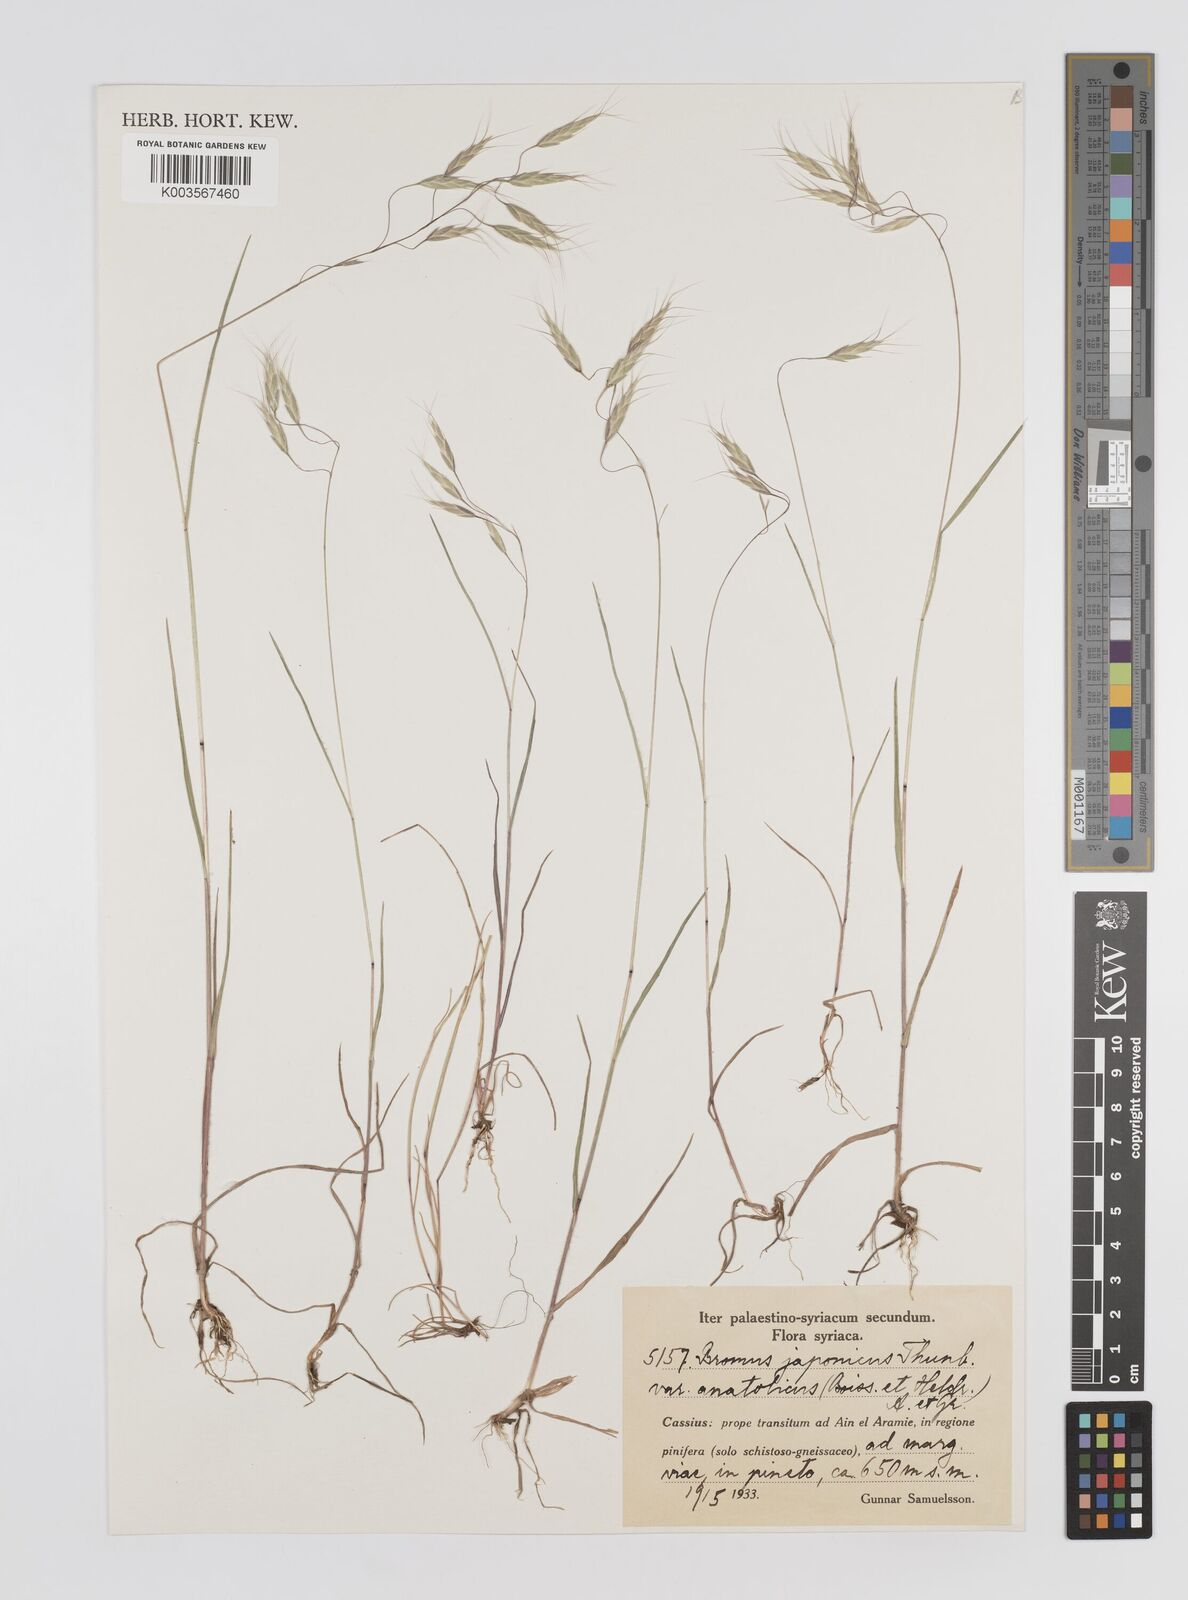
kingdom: Plantae
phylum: Tracheophyta
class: Liliopsida
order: Poales
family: Poaceae
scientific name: Poaceae
